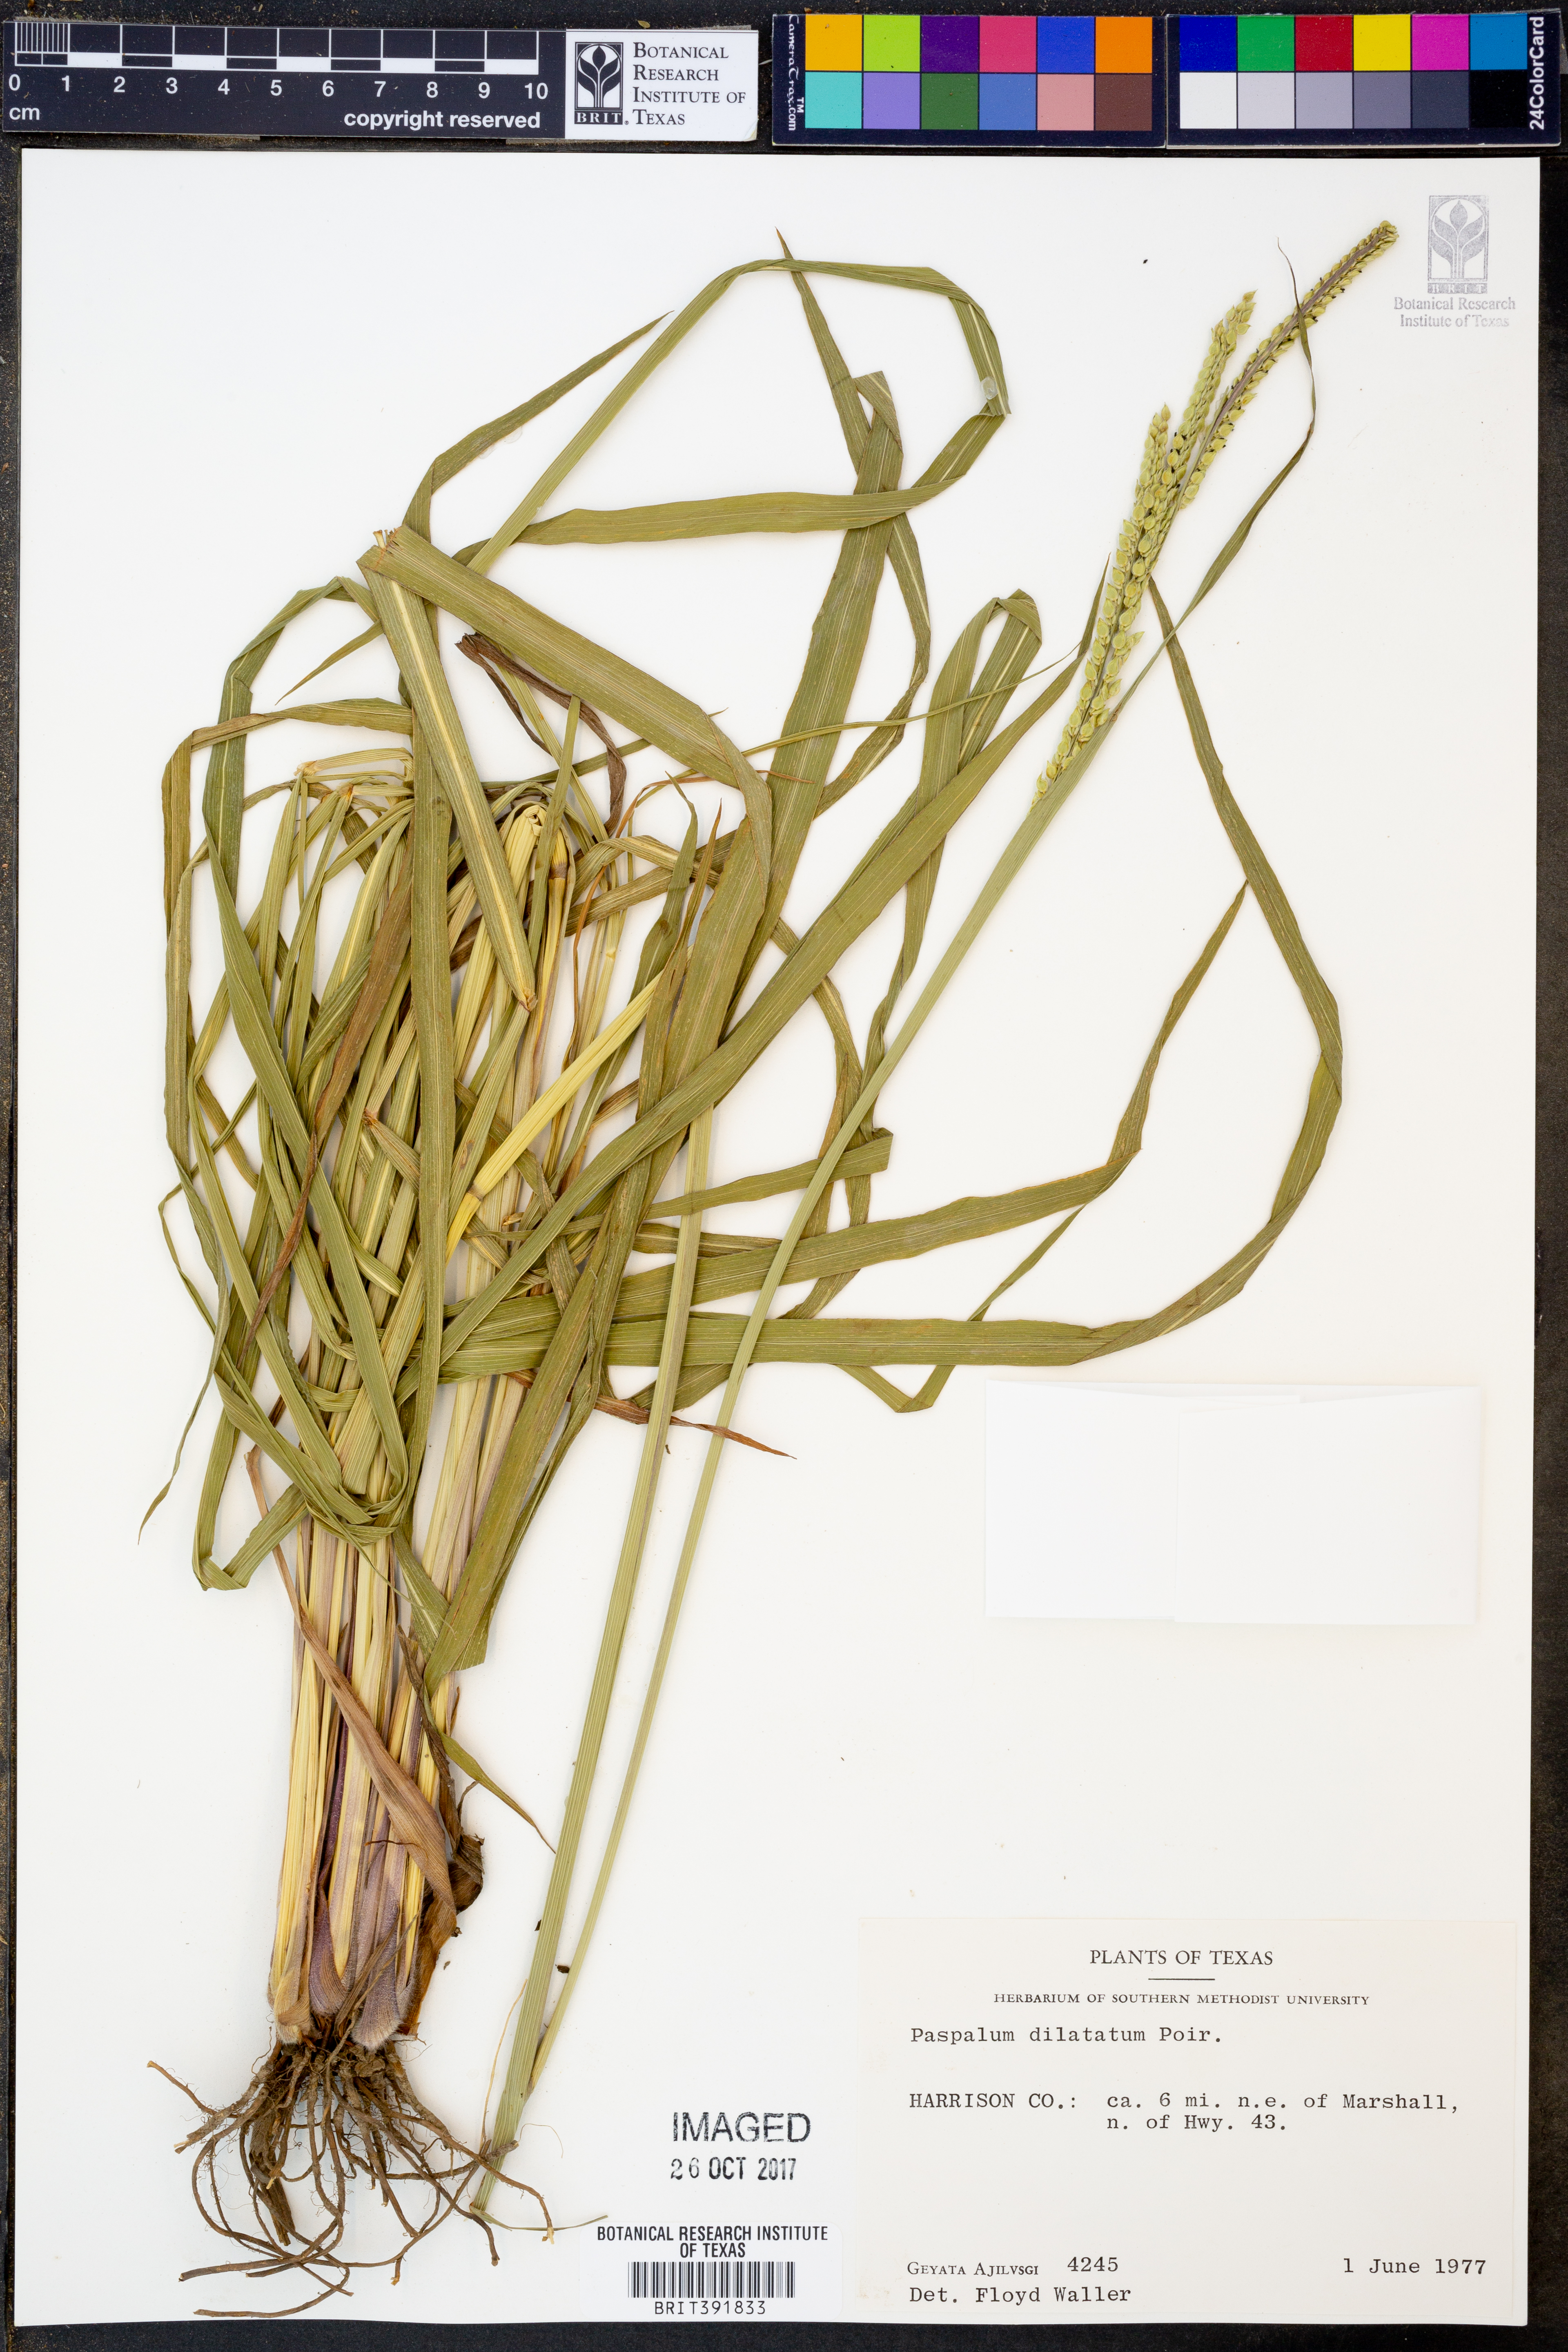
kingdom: Plantae
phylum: Tracheophyta
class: Liliopsida
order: Poales
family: Poaceae
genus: Paspalum
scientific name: Paspalum dilatatum
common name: Dallisgrass
